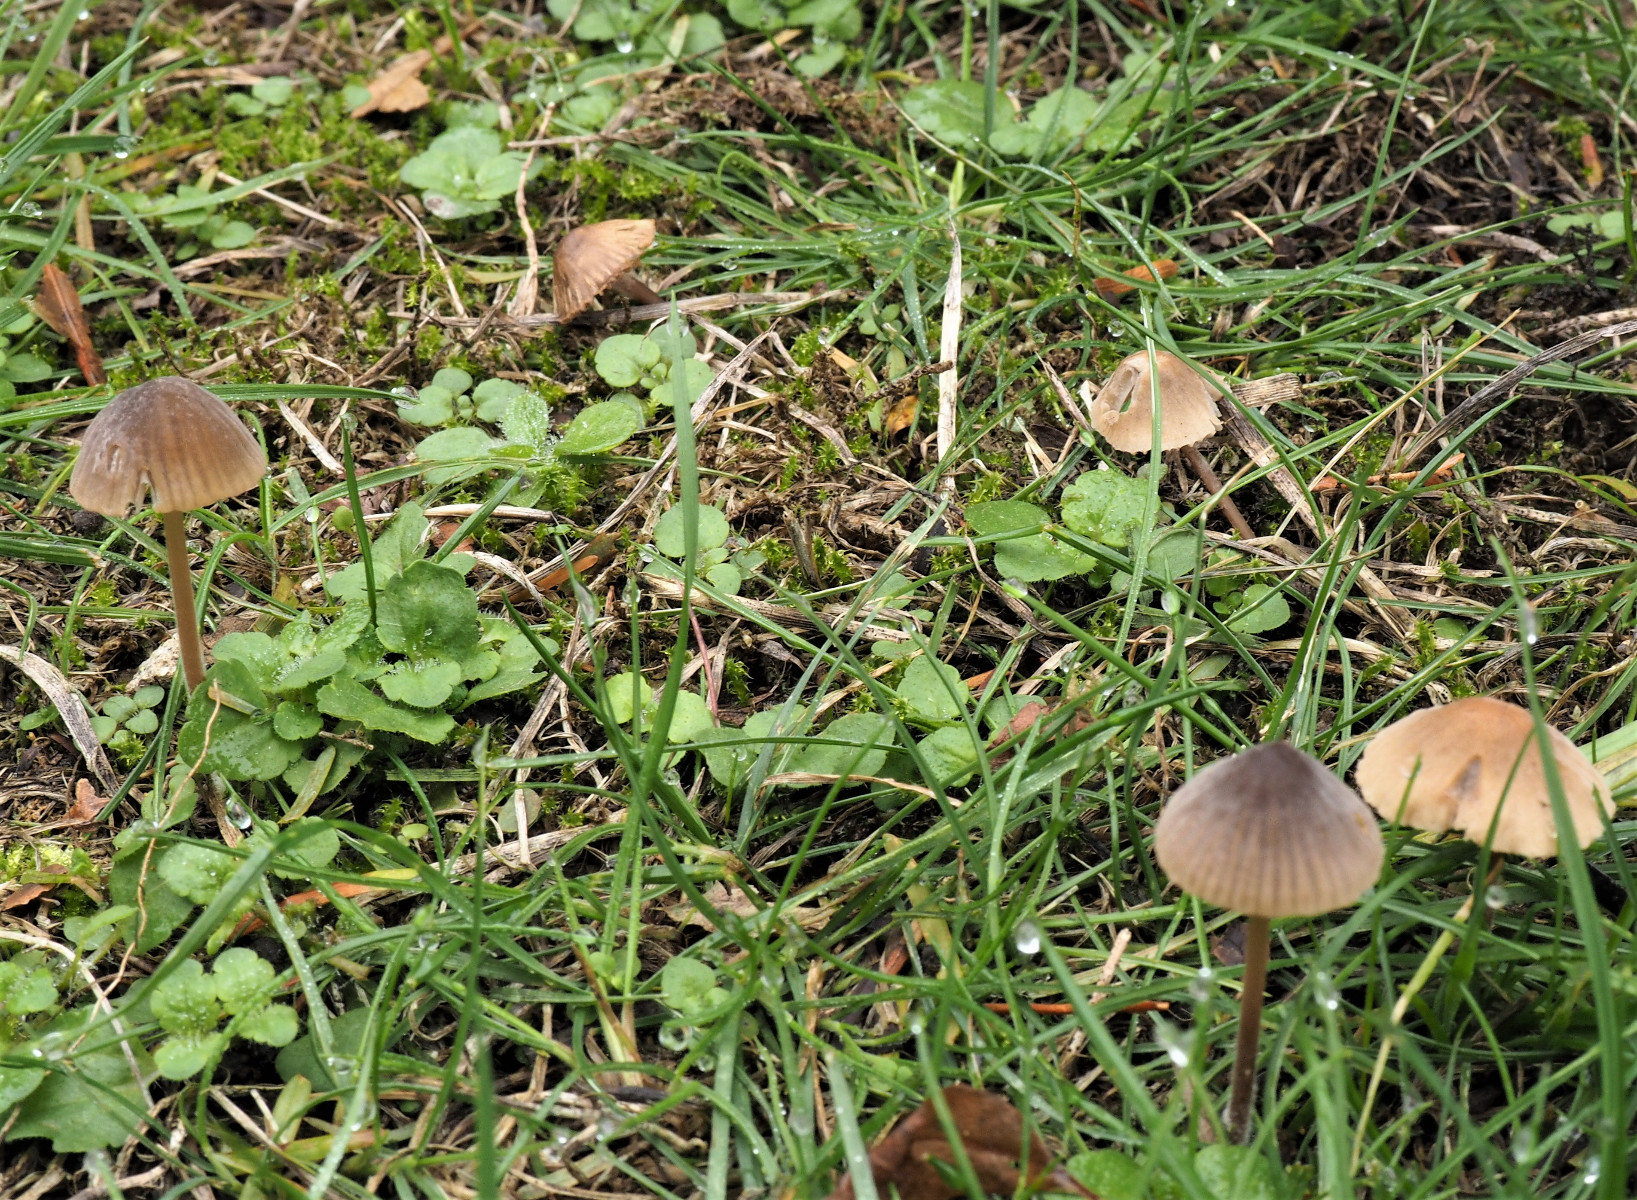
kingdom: Fungi
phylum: Basidiomycota
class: Agaricomycetes
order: Agaricales
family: Mycenaceae
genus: Mycena
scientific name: Mycena olivaceomarginata
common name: brunægget huesvamp
